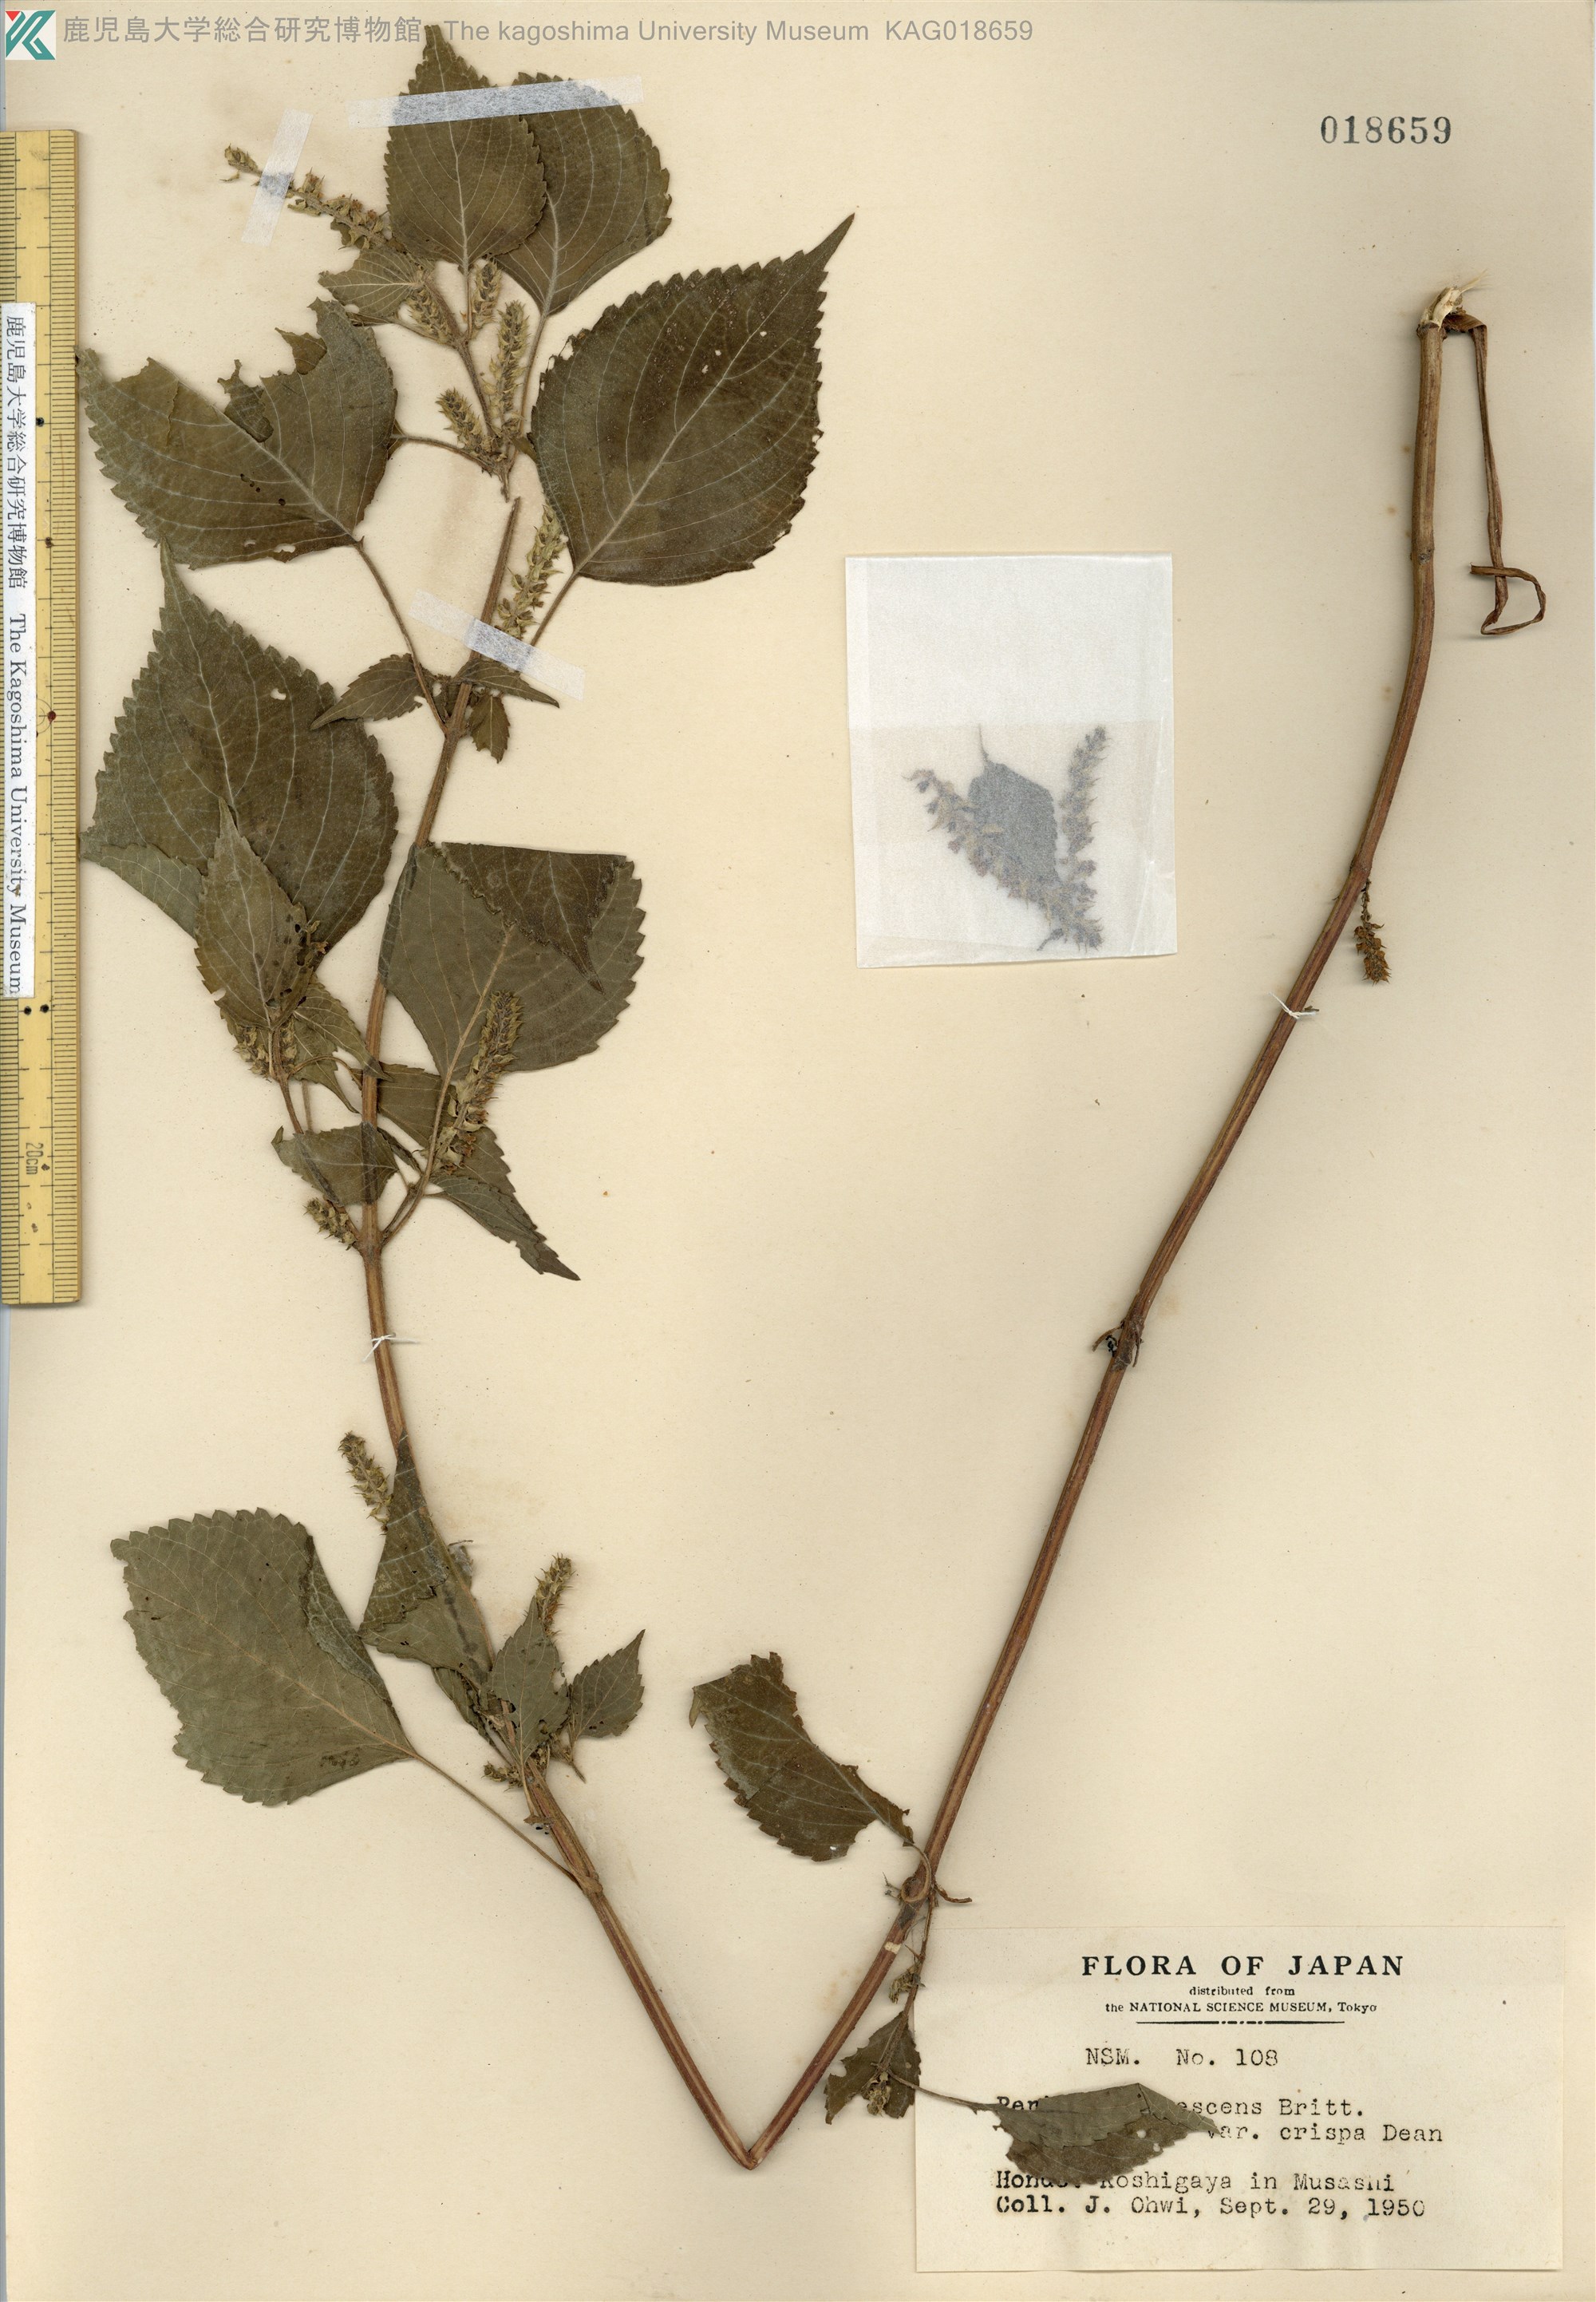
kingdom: Plantae
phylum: Tracheophyta
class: Magnoliopsida
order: Lamiales
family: Lamiaceae
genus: Perilla
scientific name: Perilla frutescens
